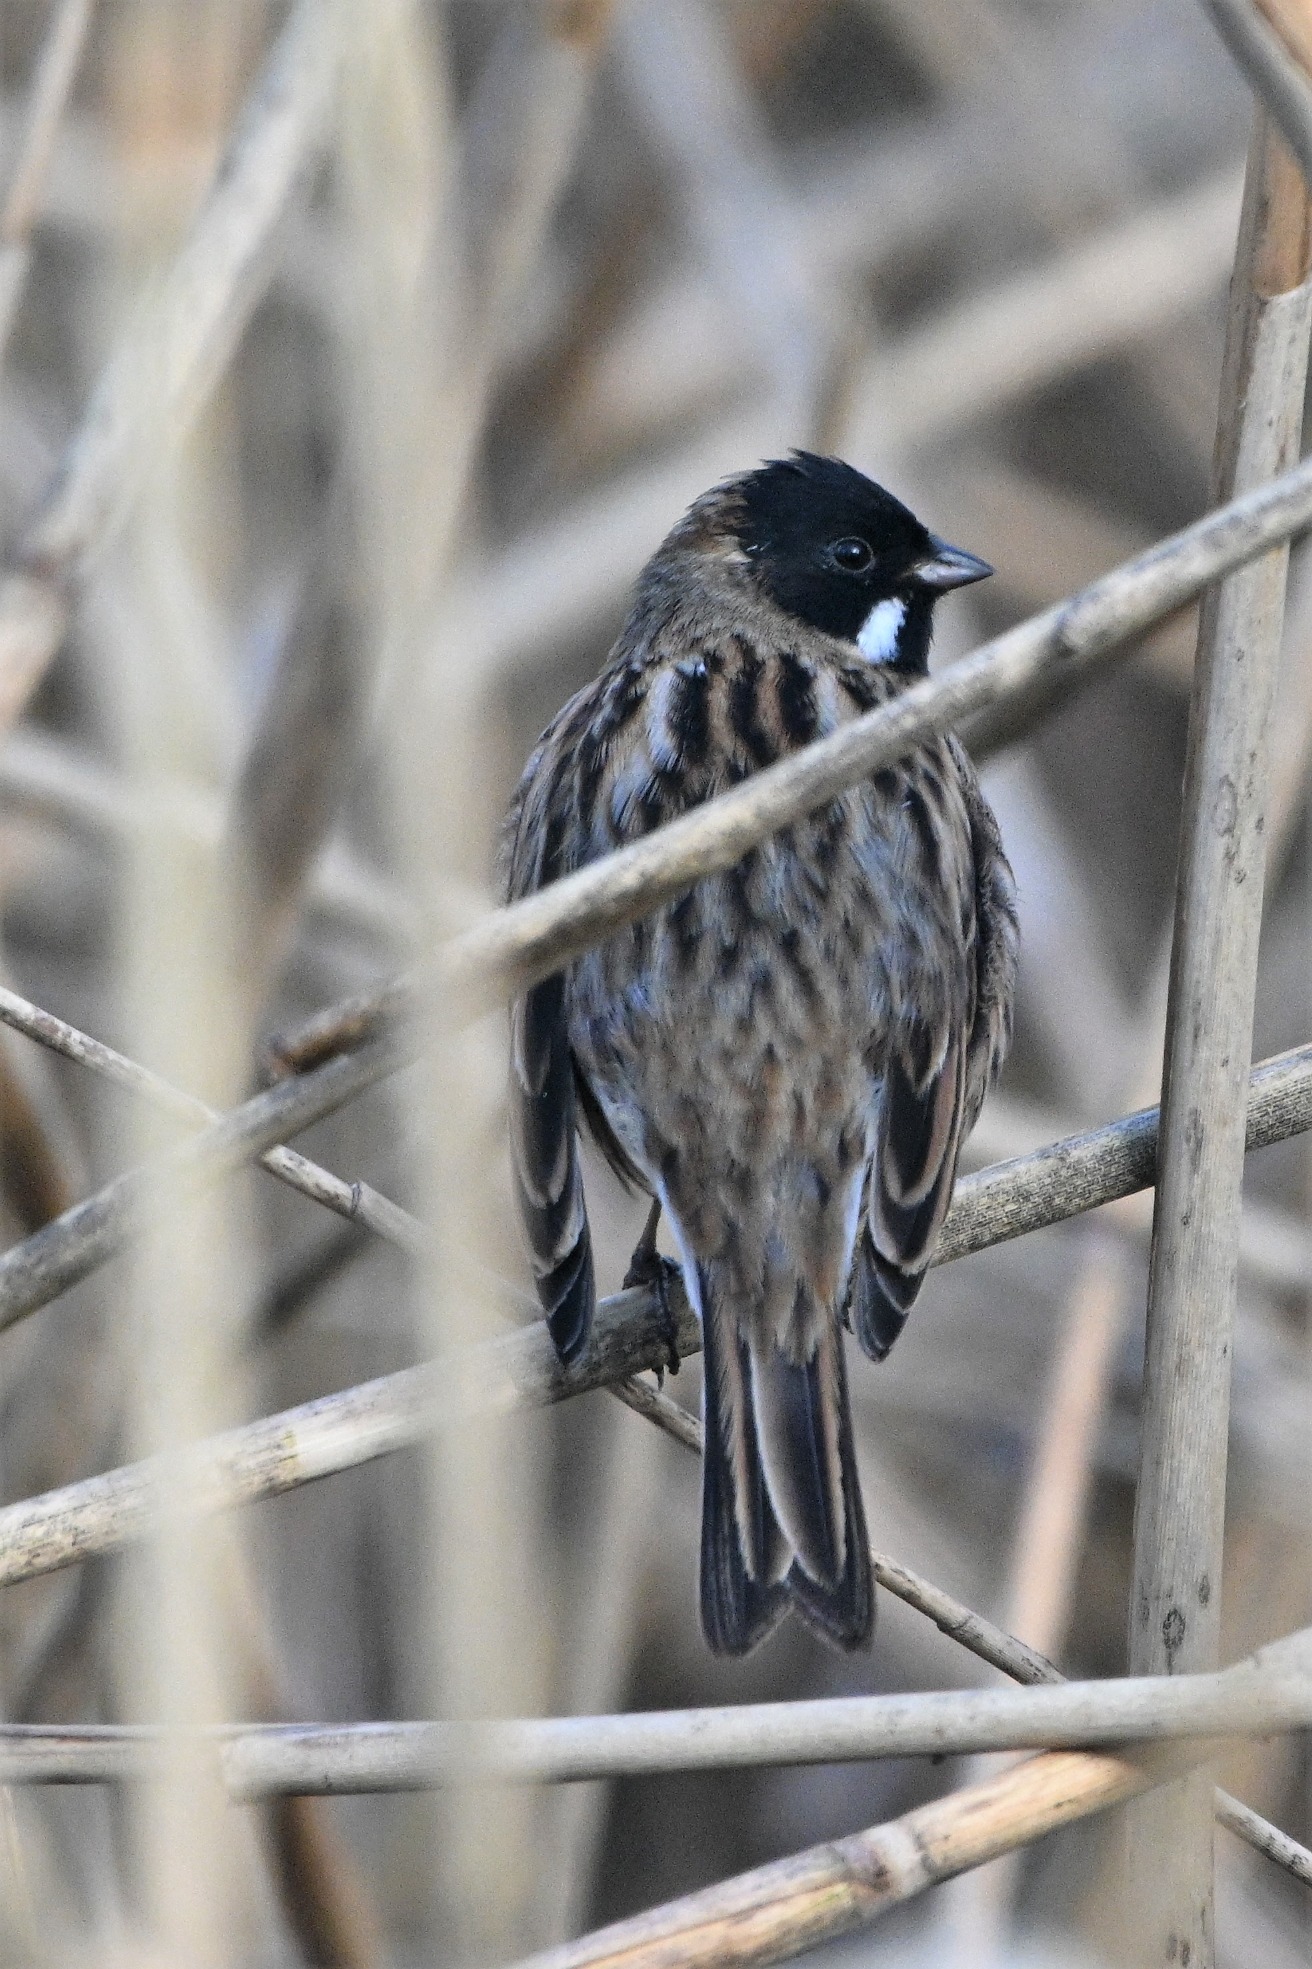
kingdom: Animalia
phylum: Chordata
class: Aves
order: Passeriformes
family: Emberizidae
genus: Emberiza
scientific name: Emberiza schoeniclus
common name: Rørspurv
